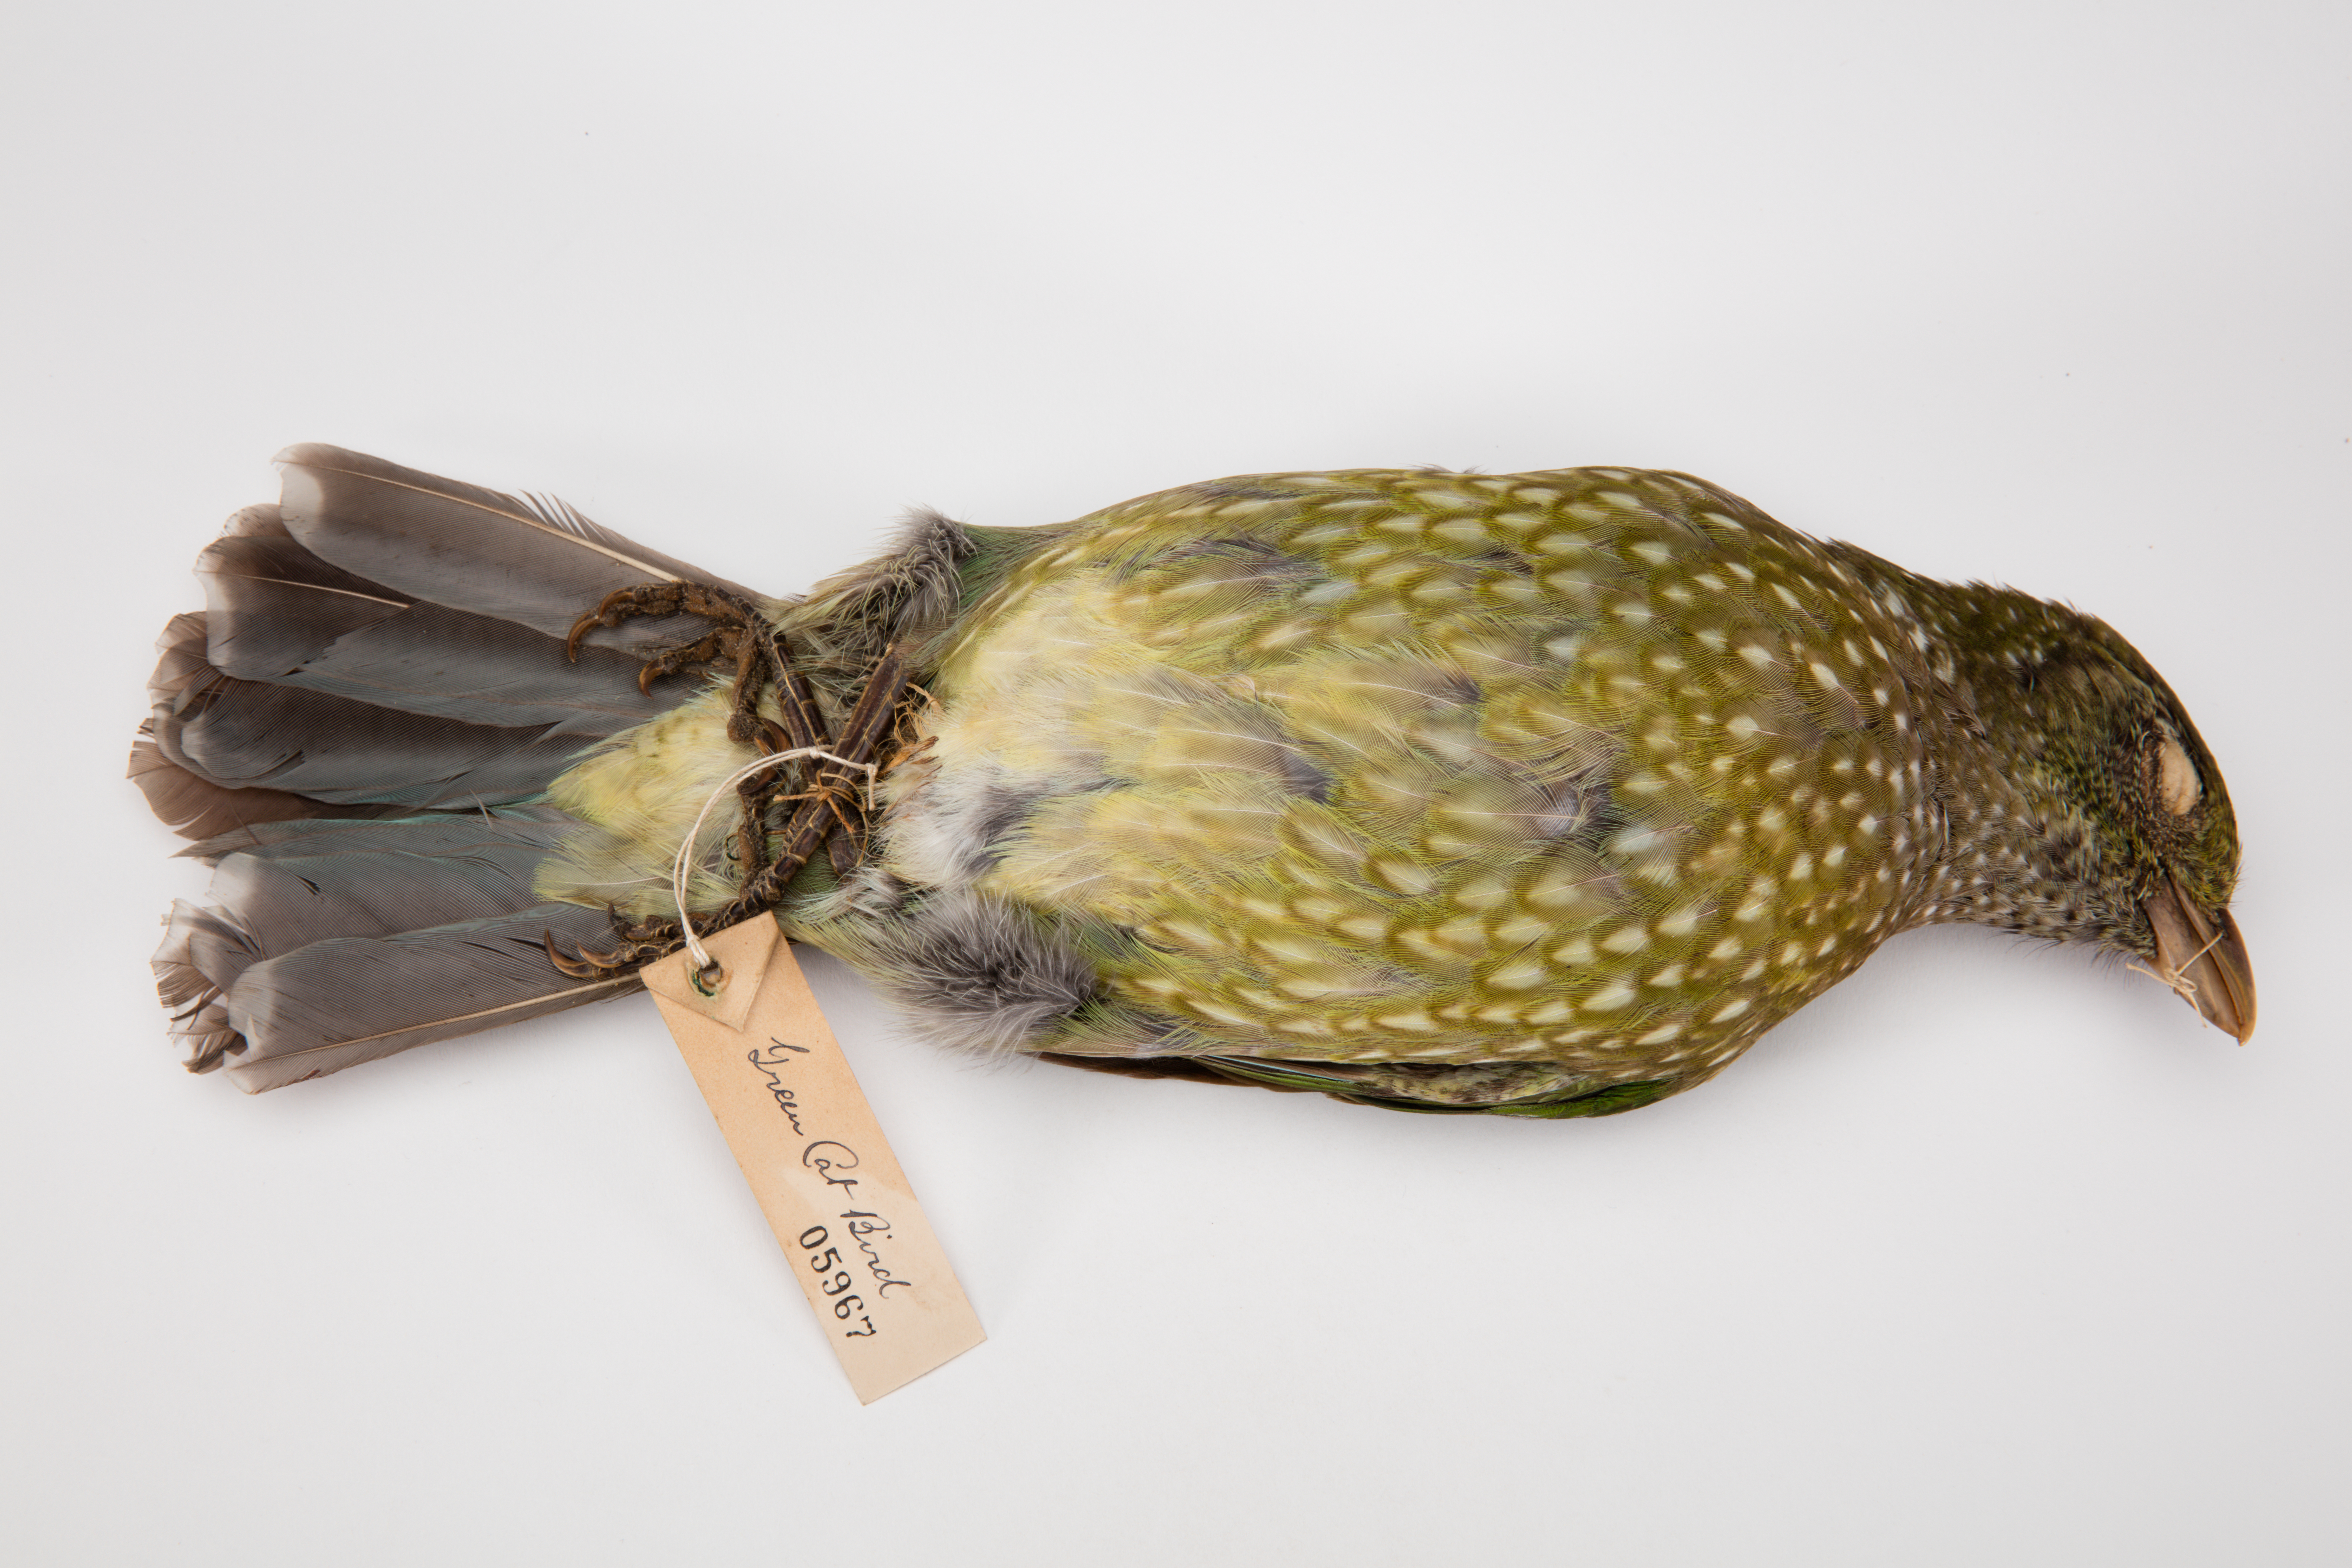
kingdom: Animalia
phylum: Chordata
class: Aves
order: Passeriformes
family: Ptilonorhynchidae
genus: Ailuroedus
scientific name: Ailuroedus crassirostris
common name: Green catbird
